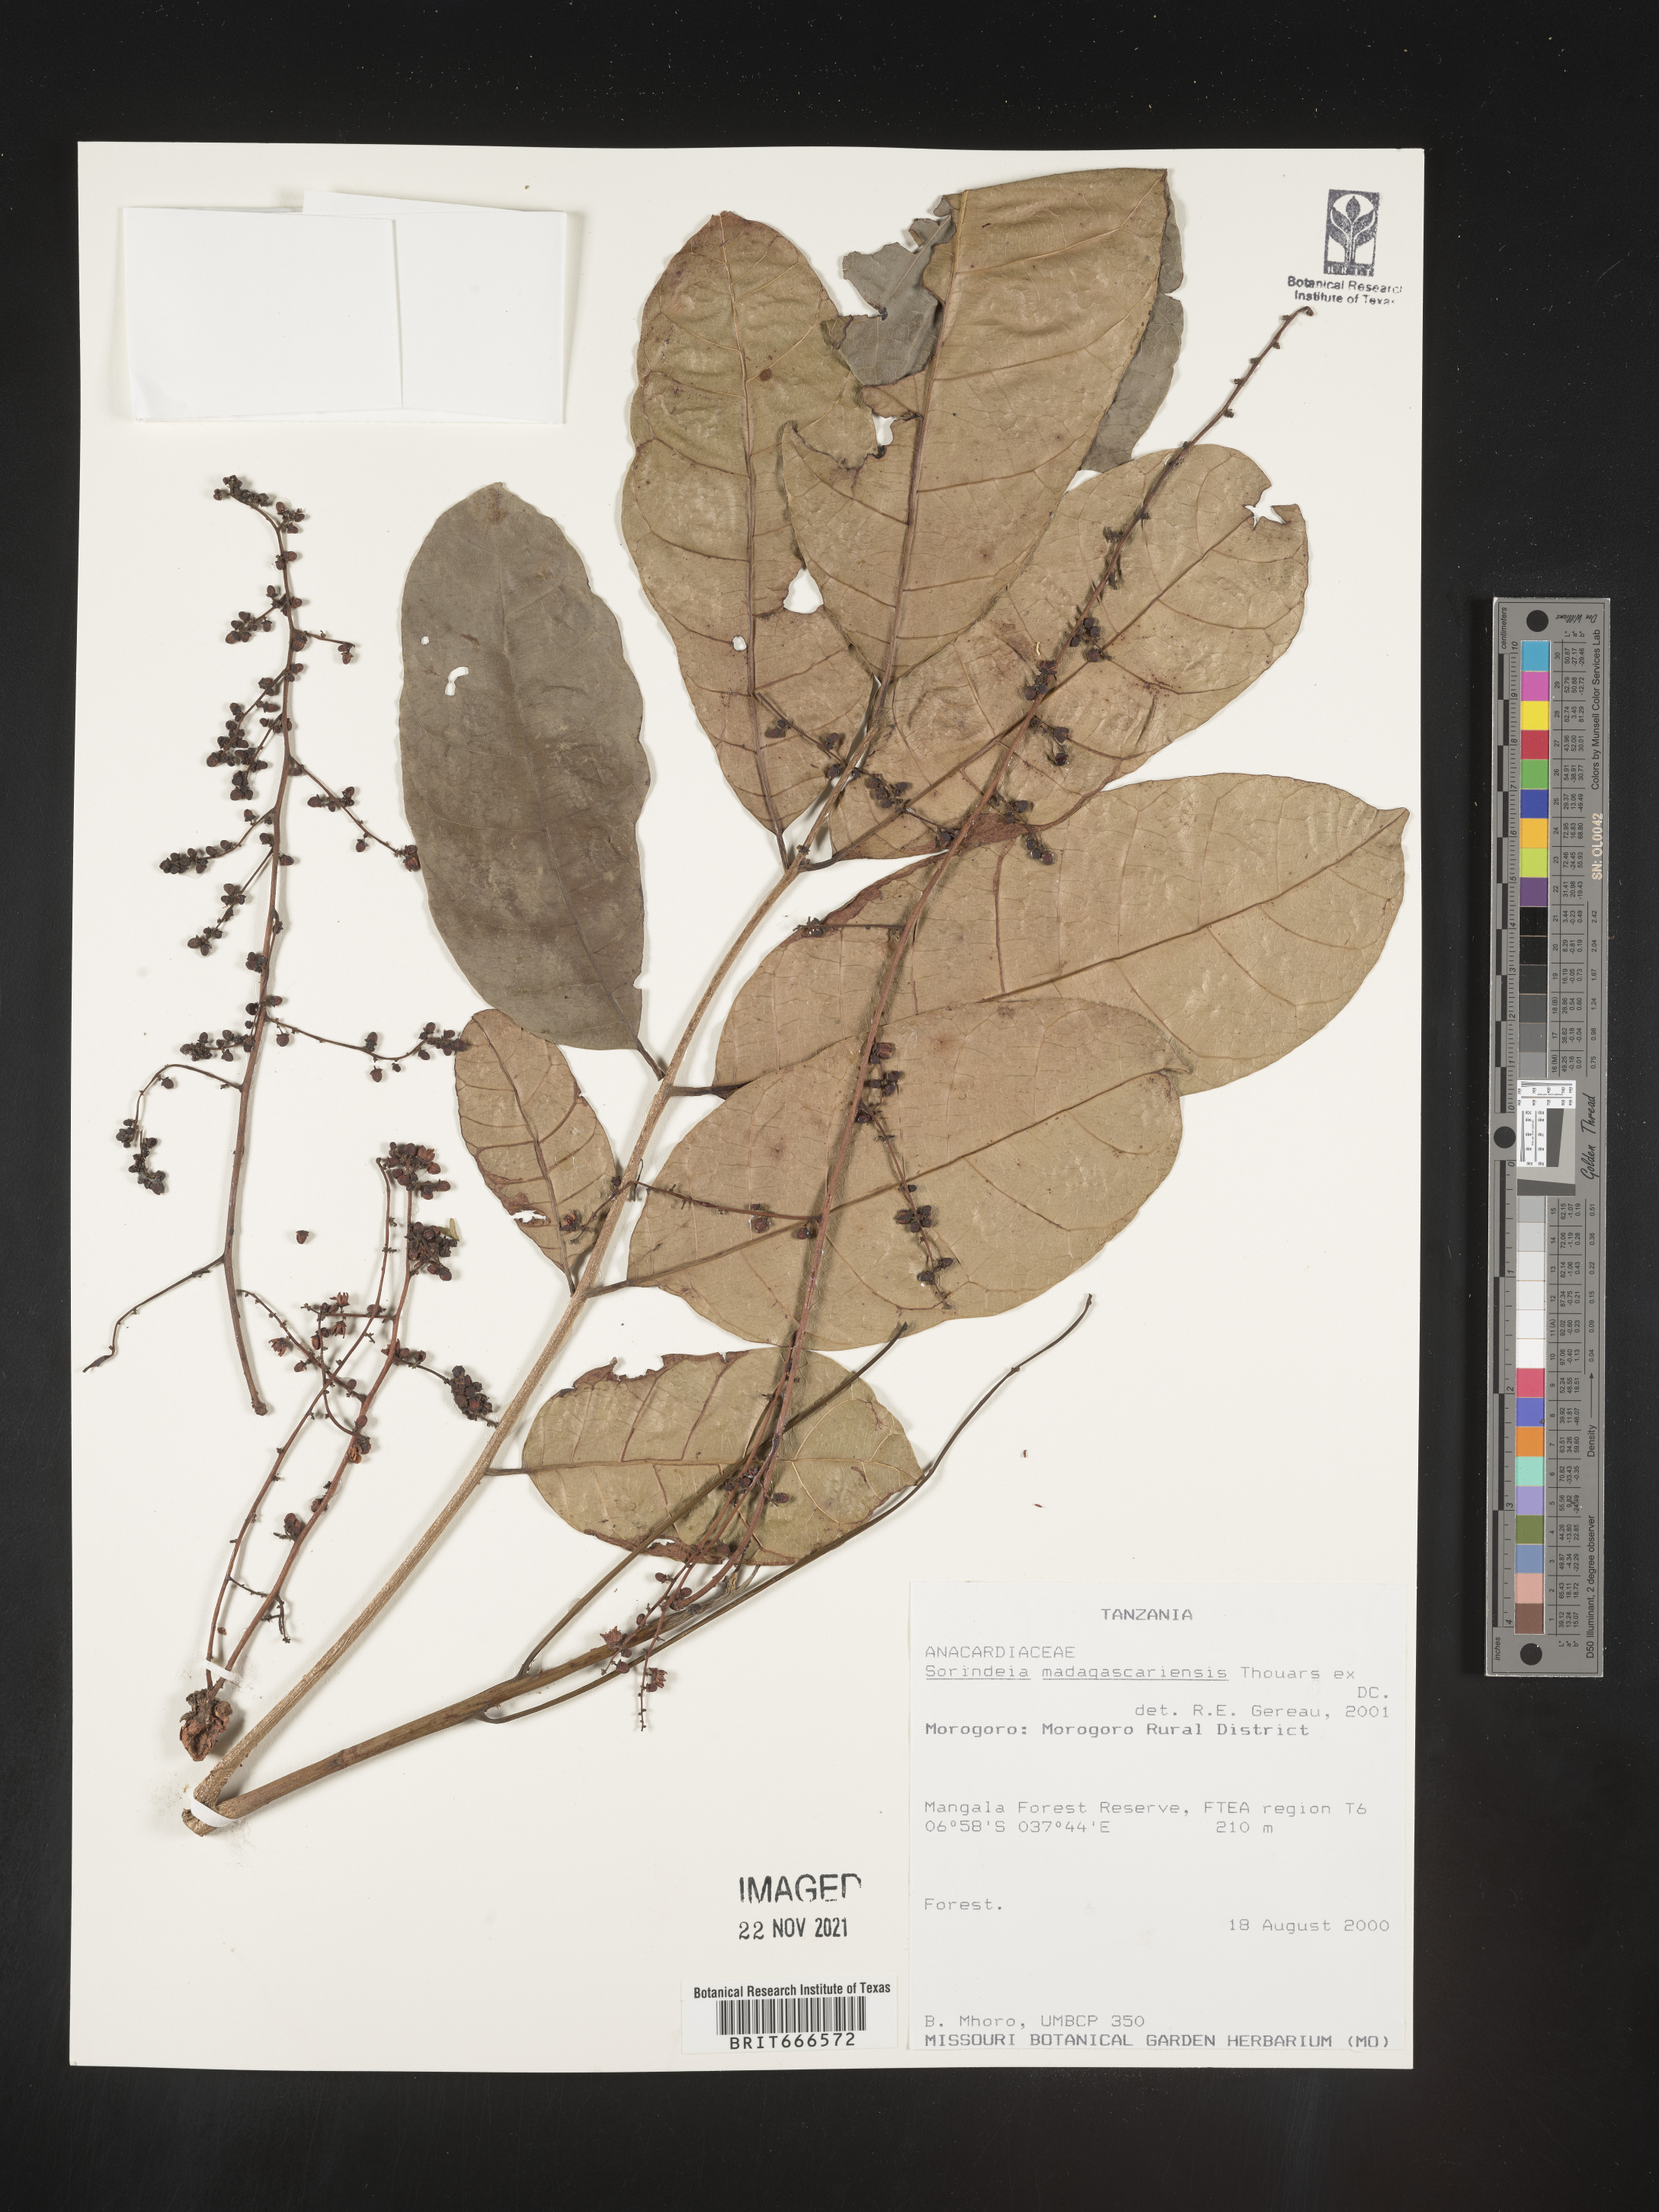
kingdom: Plantae
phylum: Tracheophyta
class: Magnoliopsida
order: Sapindales
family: Anacardiaceae
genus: Sorindeia
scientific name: Sorindeia
